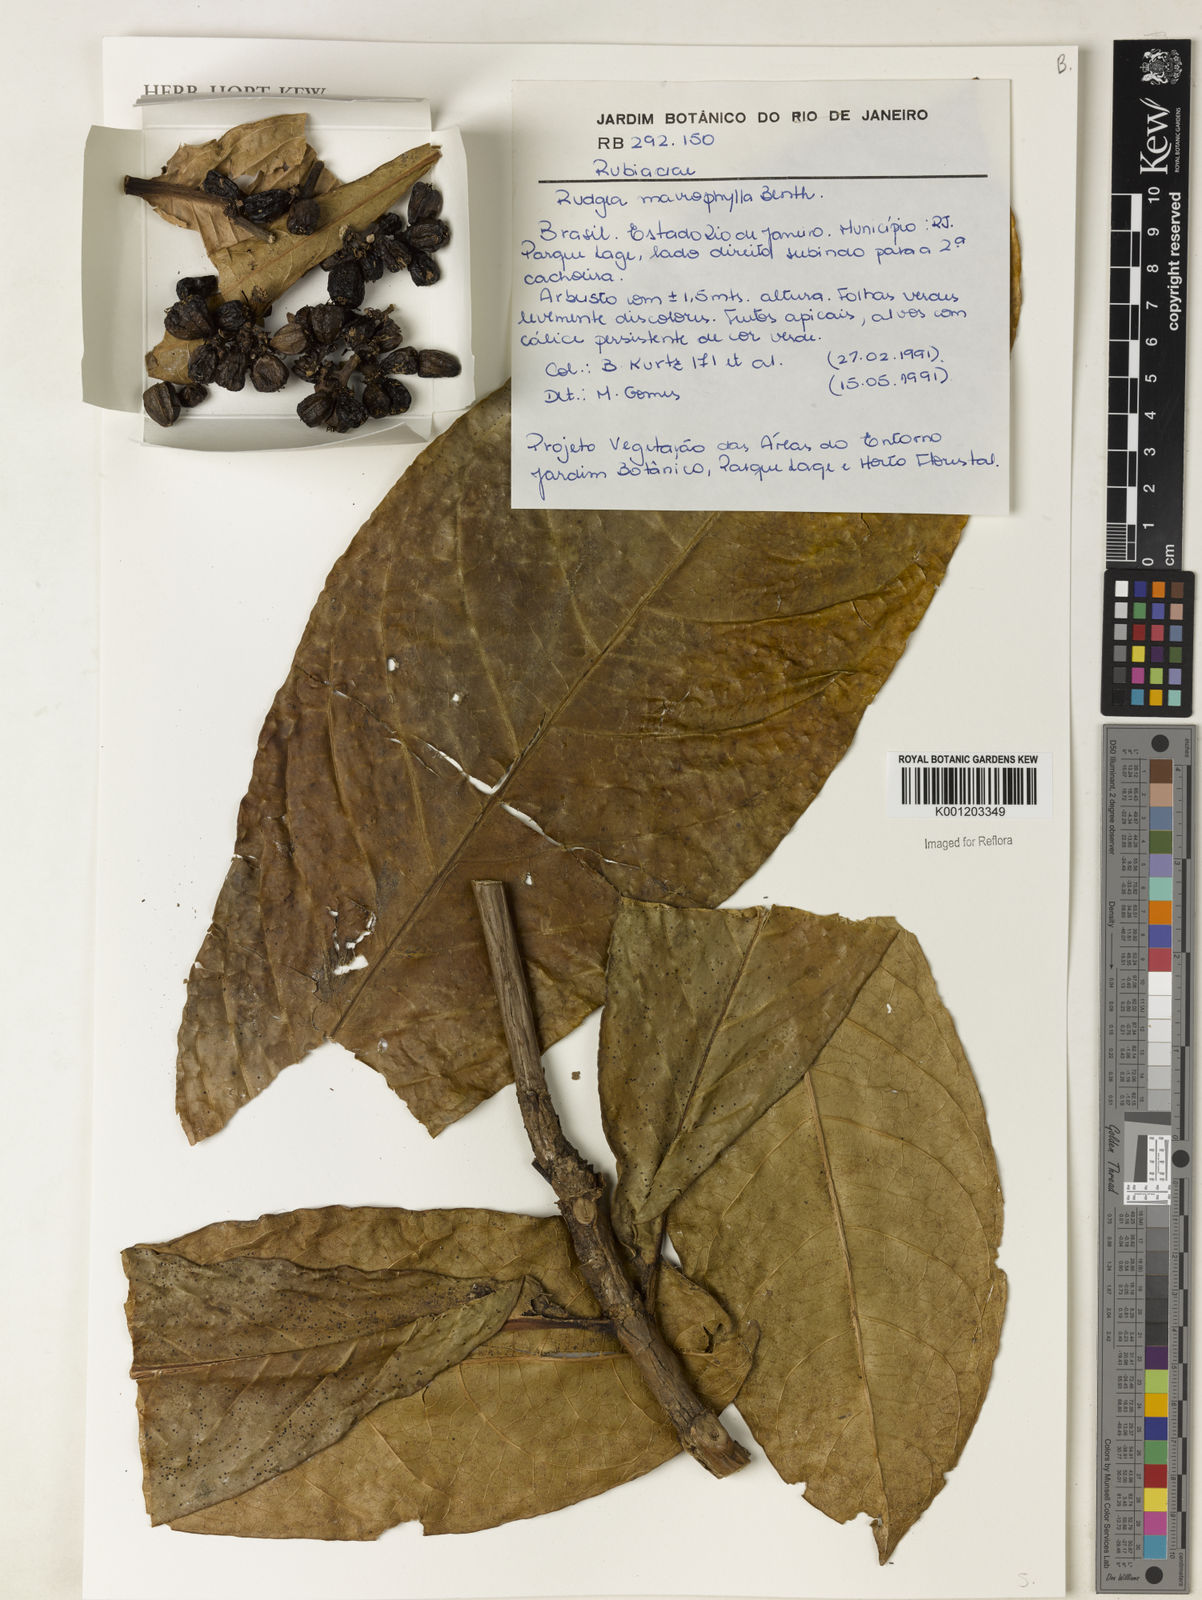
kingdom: Plantae
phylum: Tracheophyta
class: Magnoliopsida
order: Gentianales
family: Rubiaceae
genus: Rudgea
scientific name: Rudgea macrophylla
